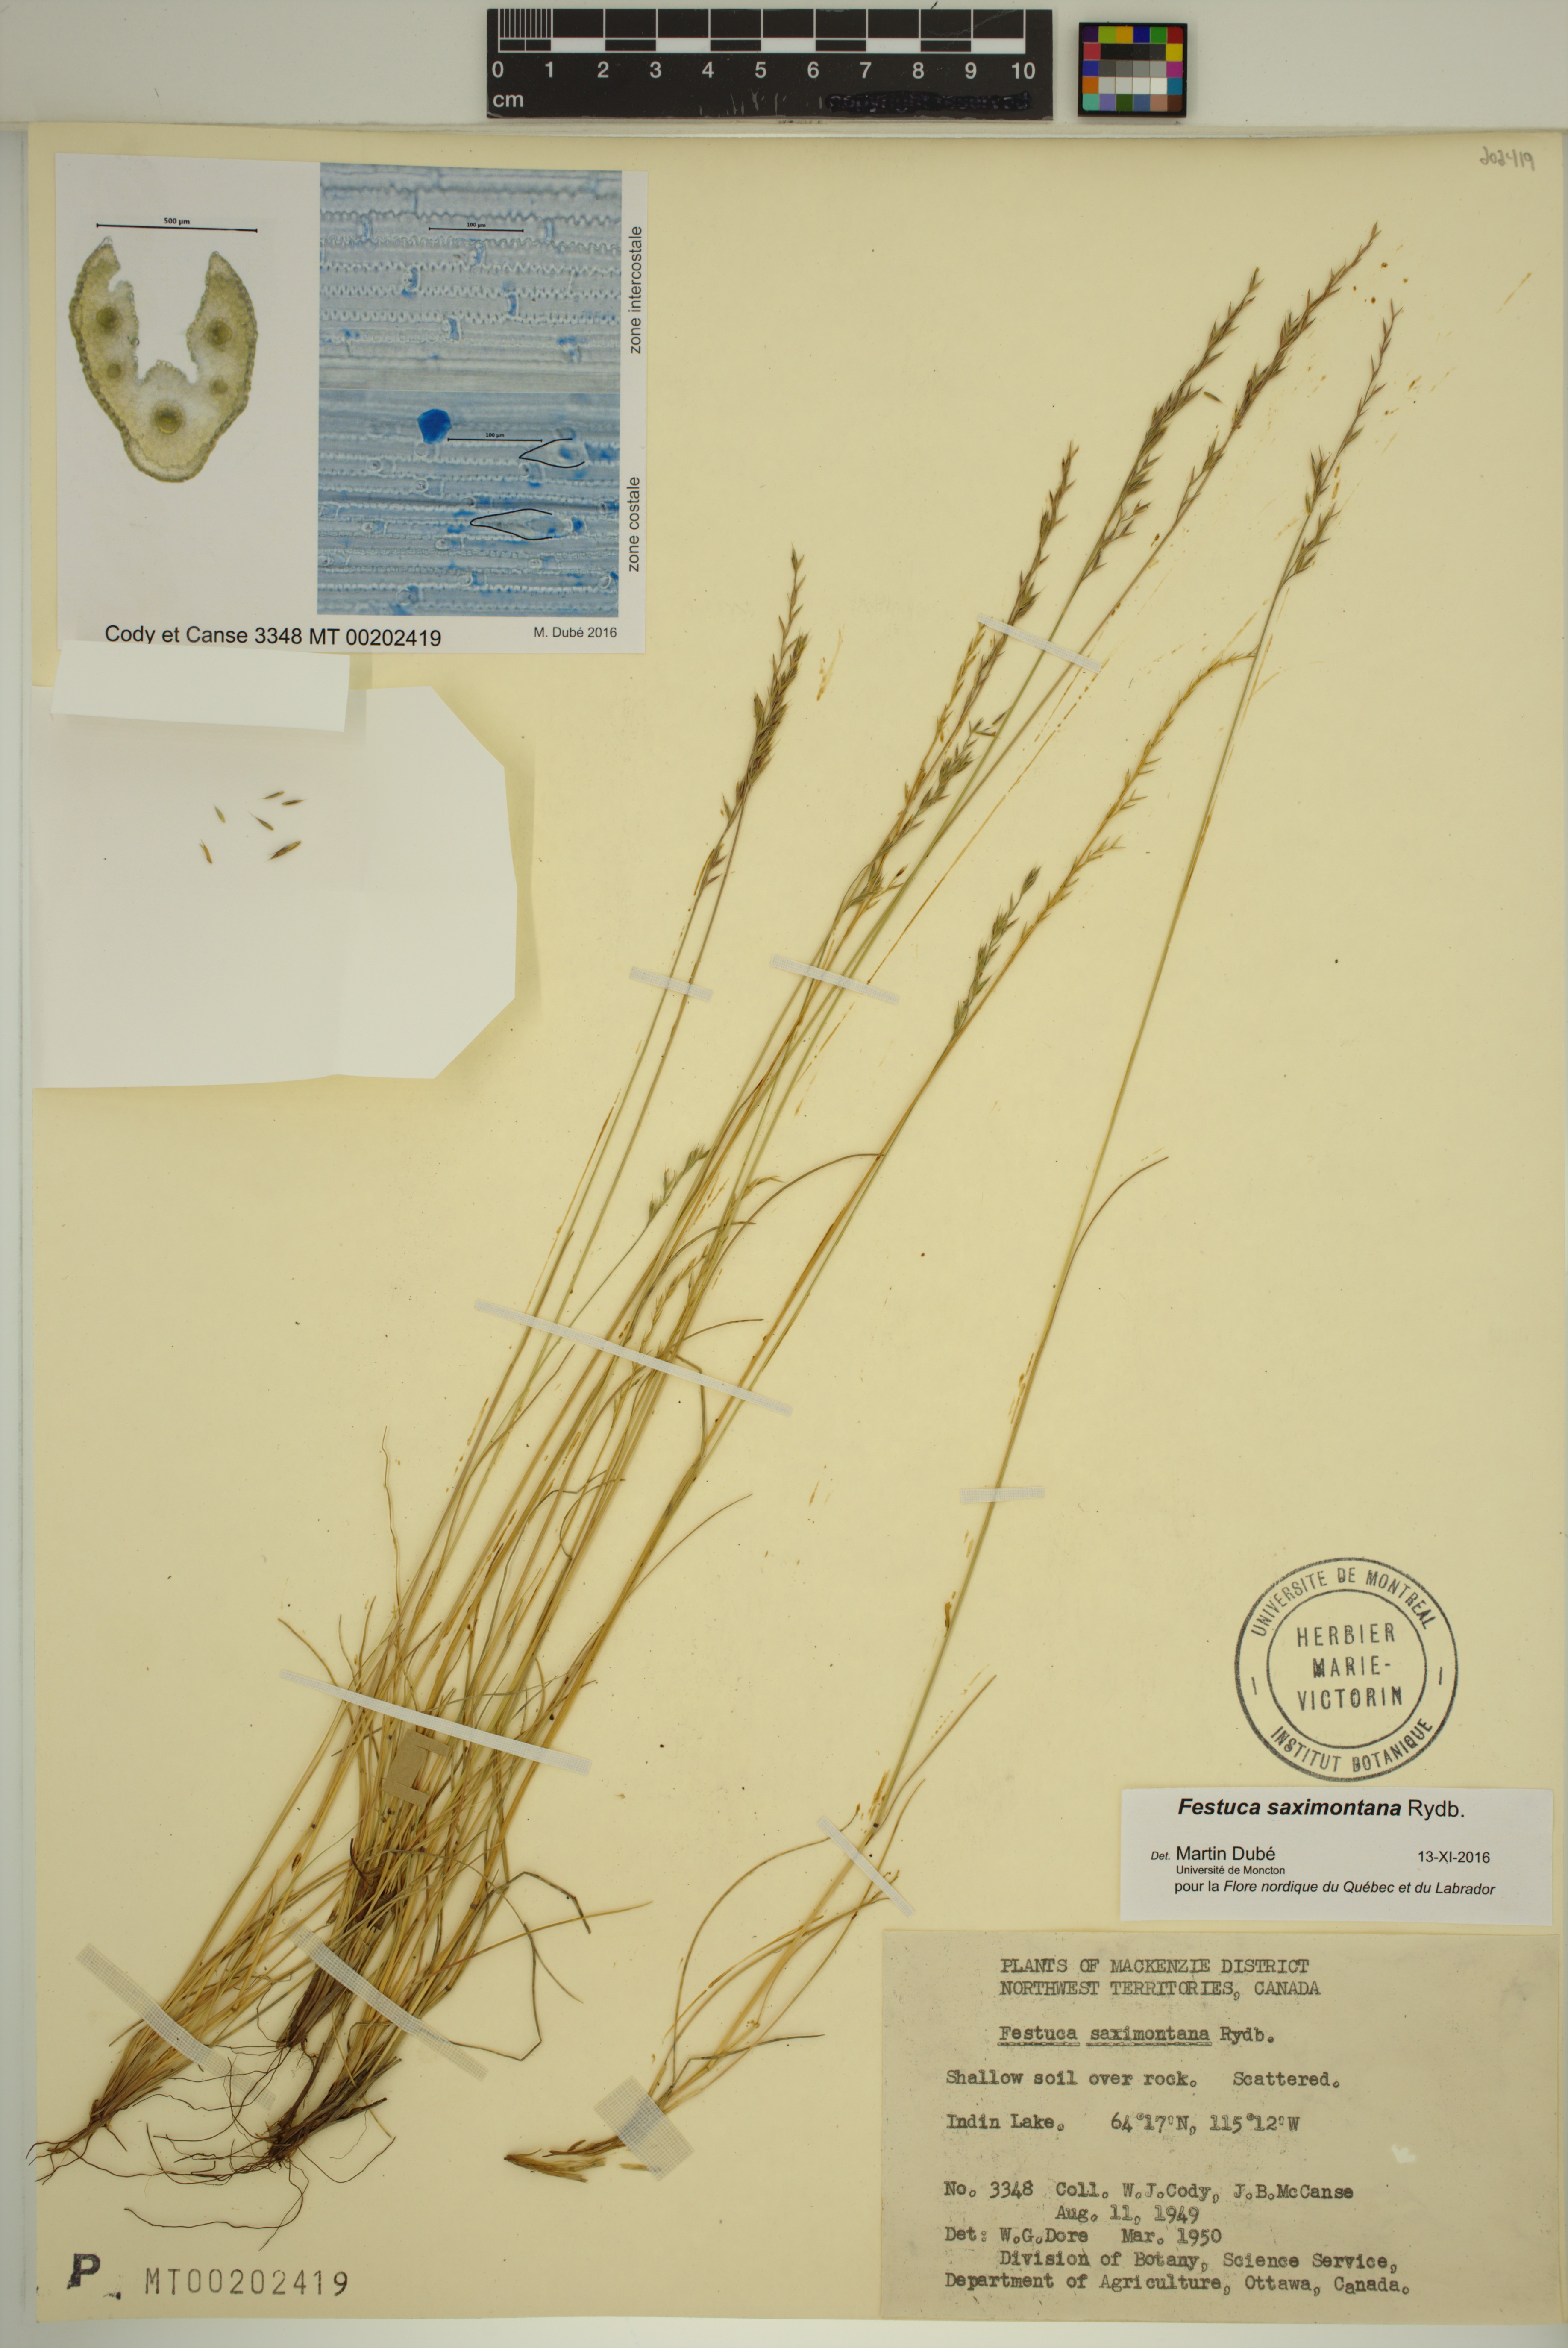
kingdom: Plantae
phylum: Tracheophyta
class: Liliopsida
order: Poales
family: Poaceae
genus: Festuca
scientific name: Festuca saximontana
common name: Mountain fescue
